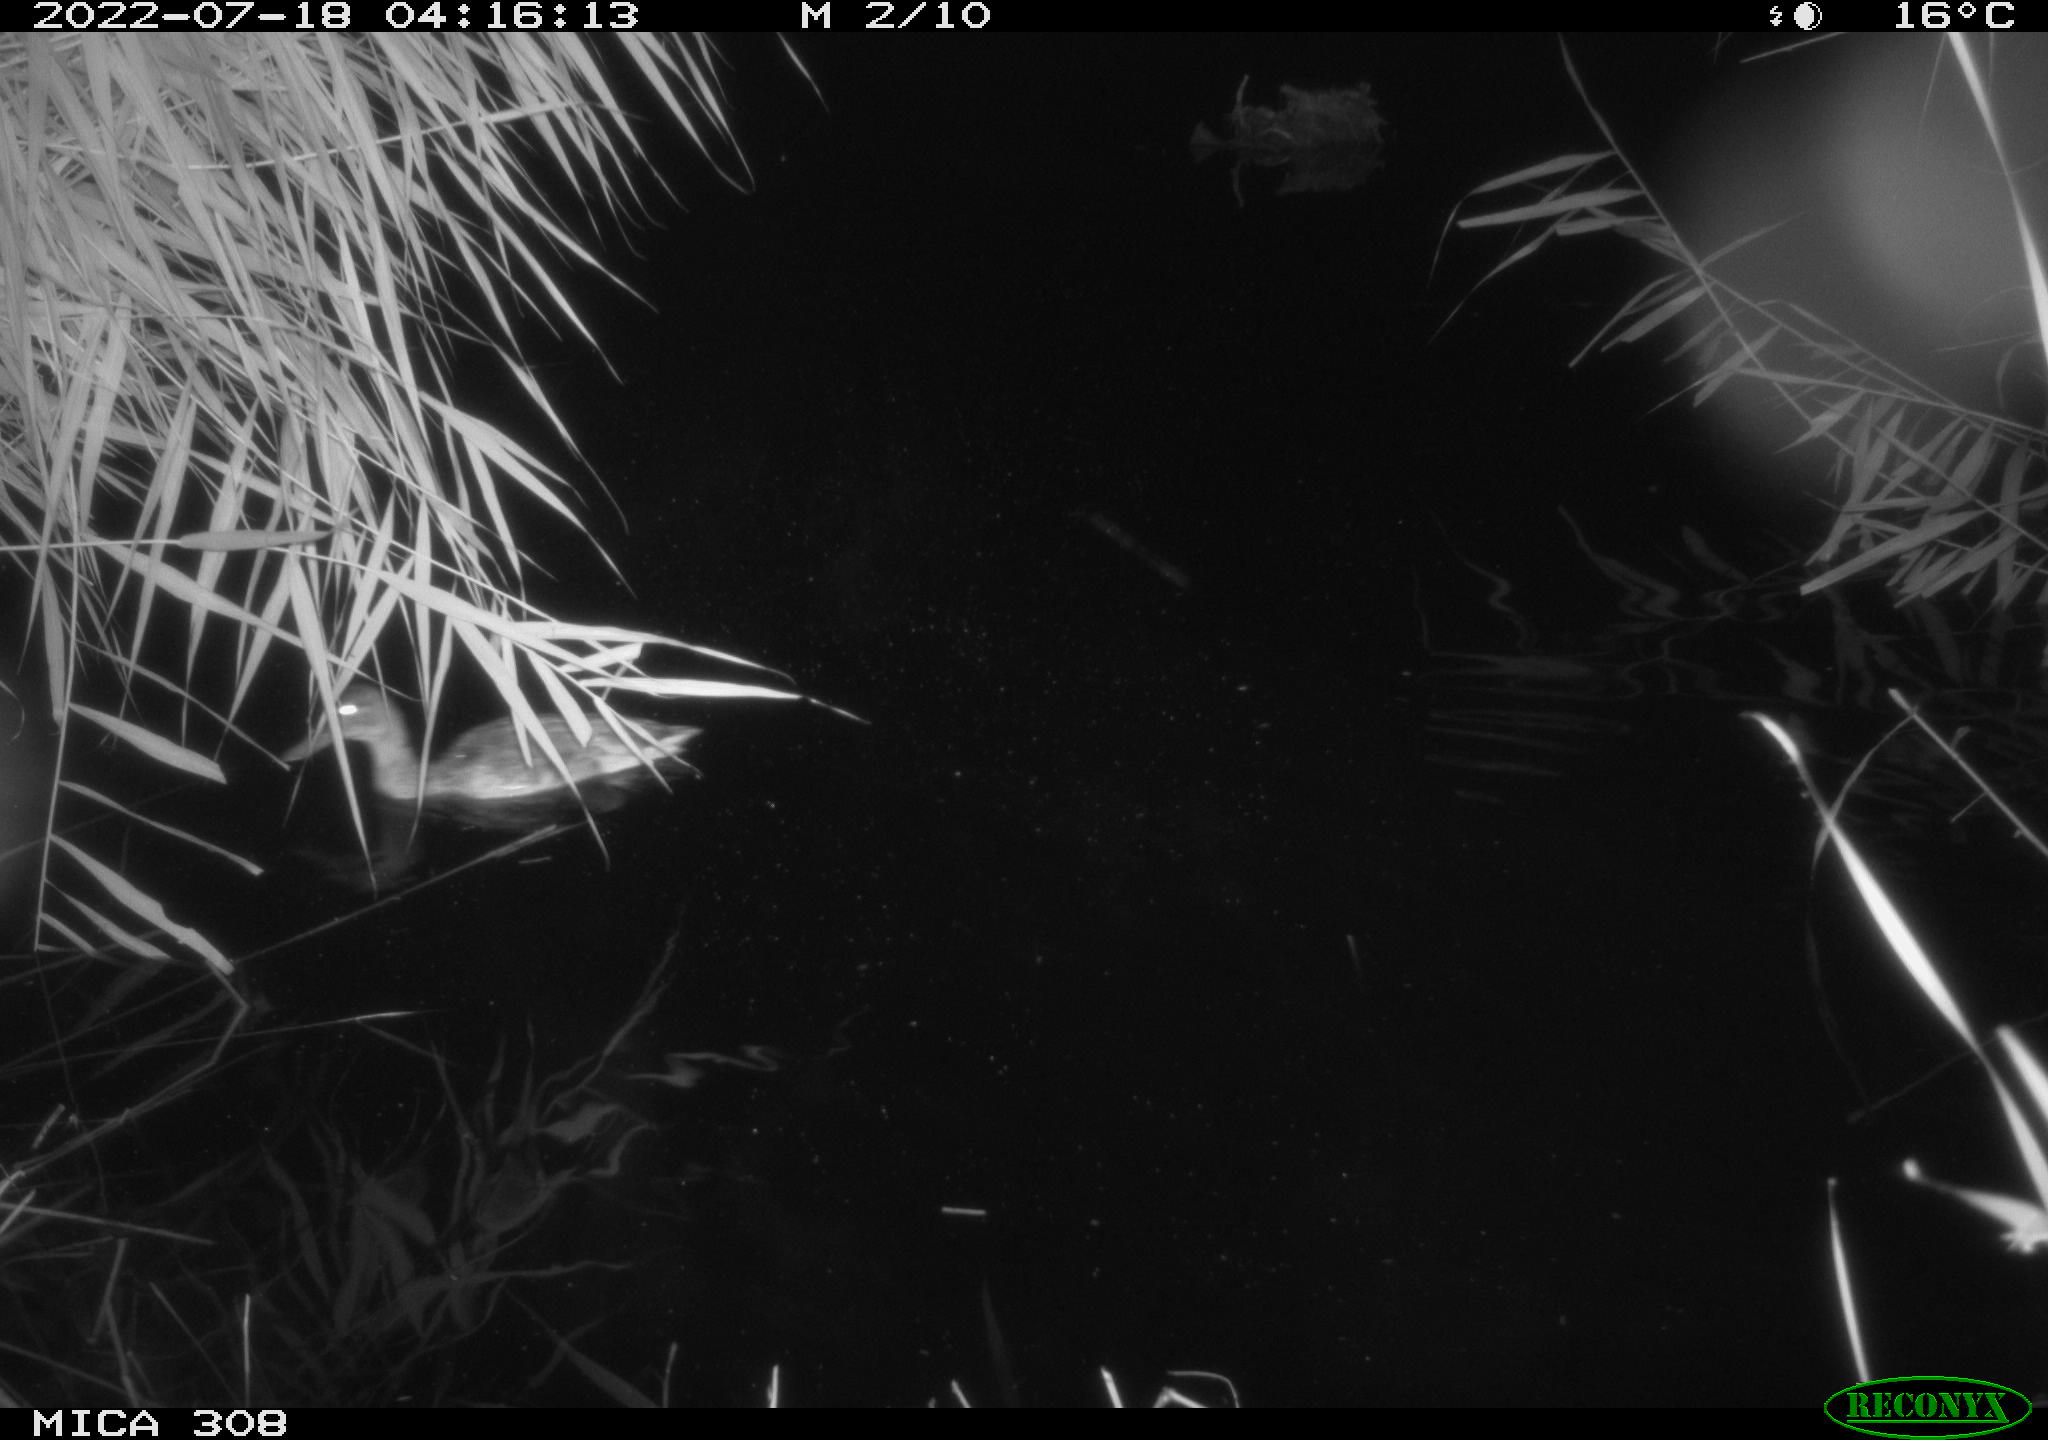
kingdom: Animalia
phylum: Chordata
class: Aves
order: Anseriformes
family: Anatidae
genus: Anas
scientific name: Anas platyrhynchos
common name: Mallard
